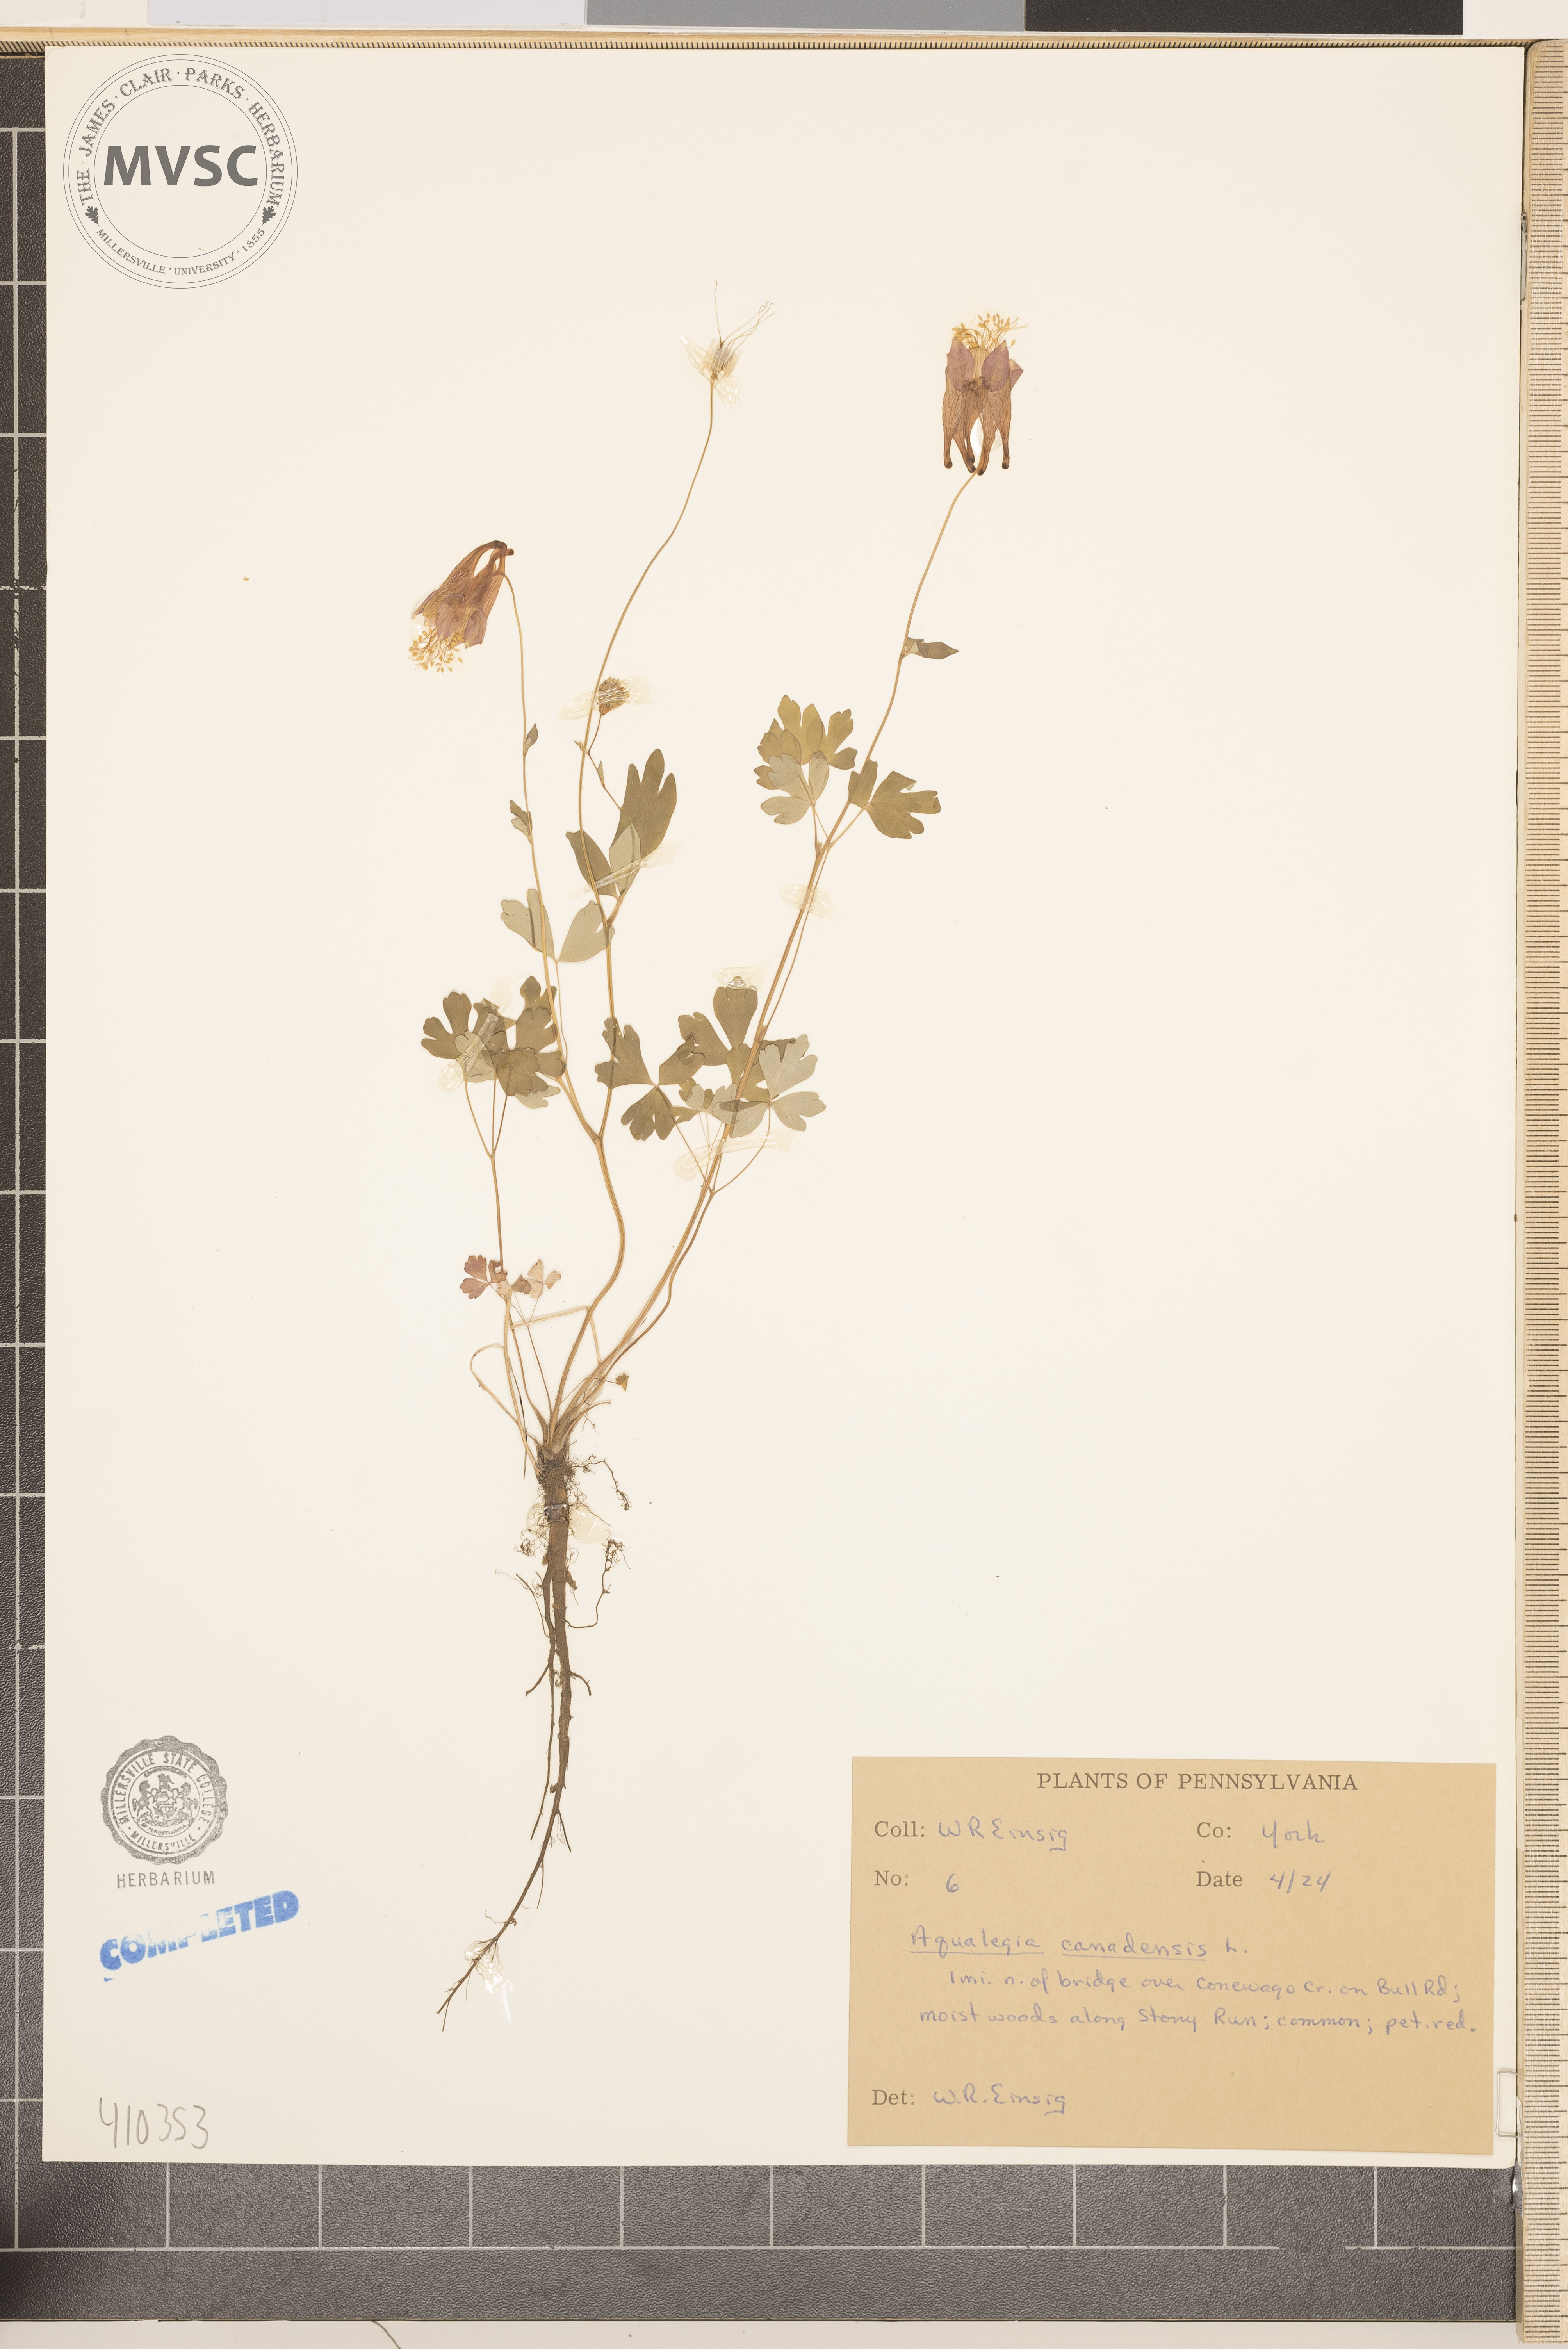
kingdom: Plantae
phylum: Tracheophyta
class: Magnoliopsida
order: Ranunculales
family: Ranunculaceae
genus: Aquilegia
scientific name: Aquilegia canadensis
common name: American columbine
